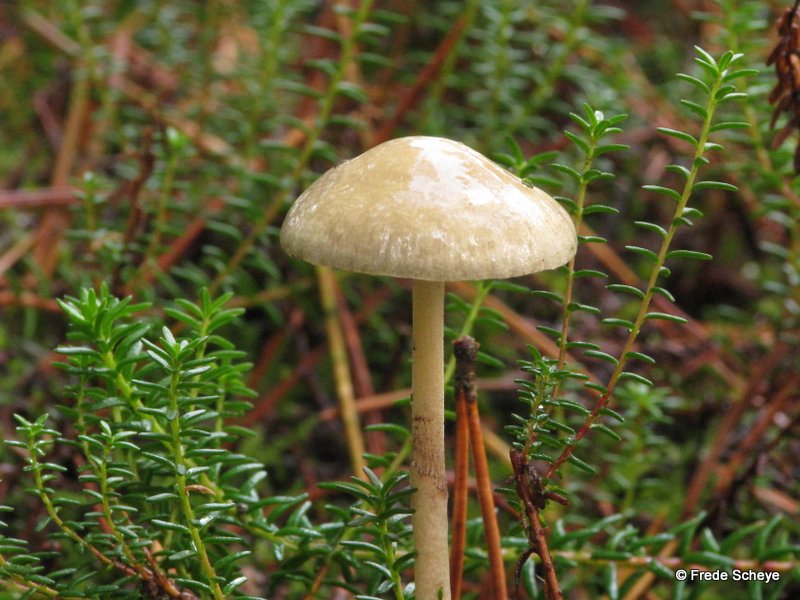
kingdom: Fungi
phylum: Basidiomycota
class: Agaricomycetes
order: Agaricales
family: Strophariaceae
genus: Protostropharia
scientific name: Protostropharia semiglobata
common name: halvkugleformet bredblad
